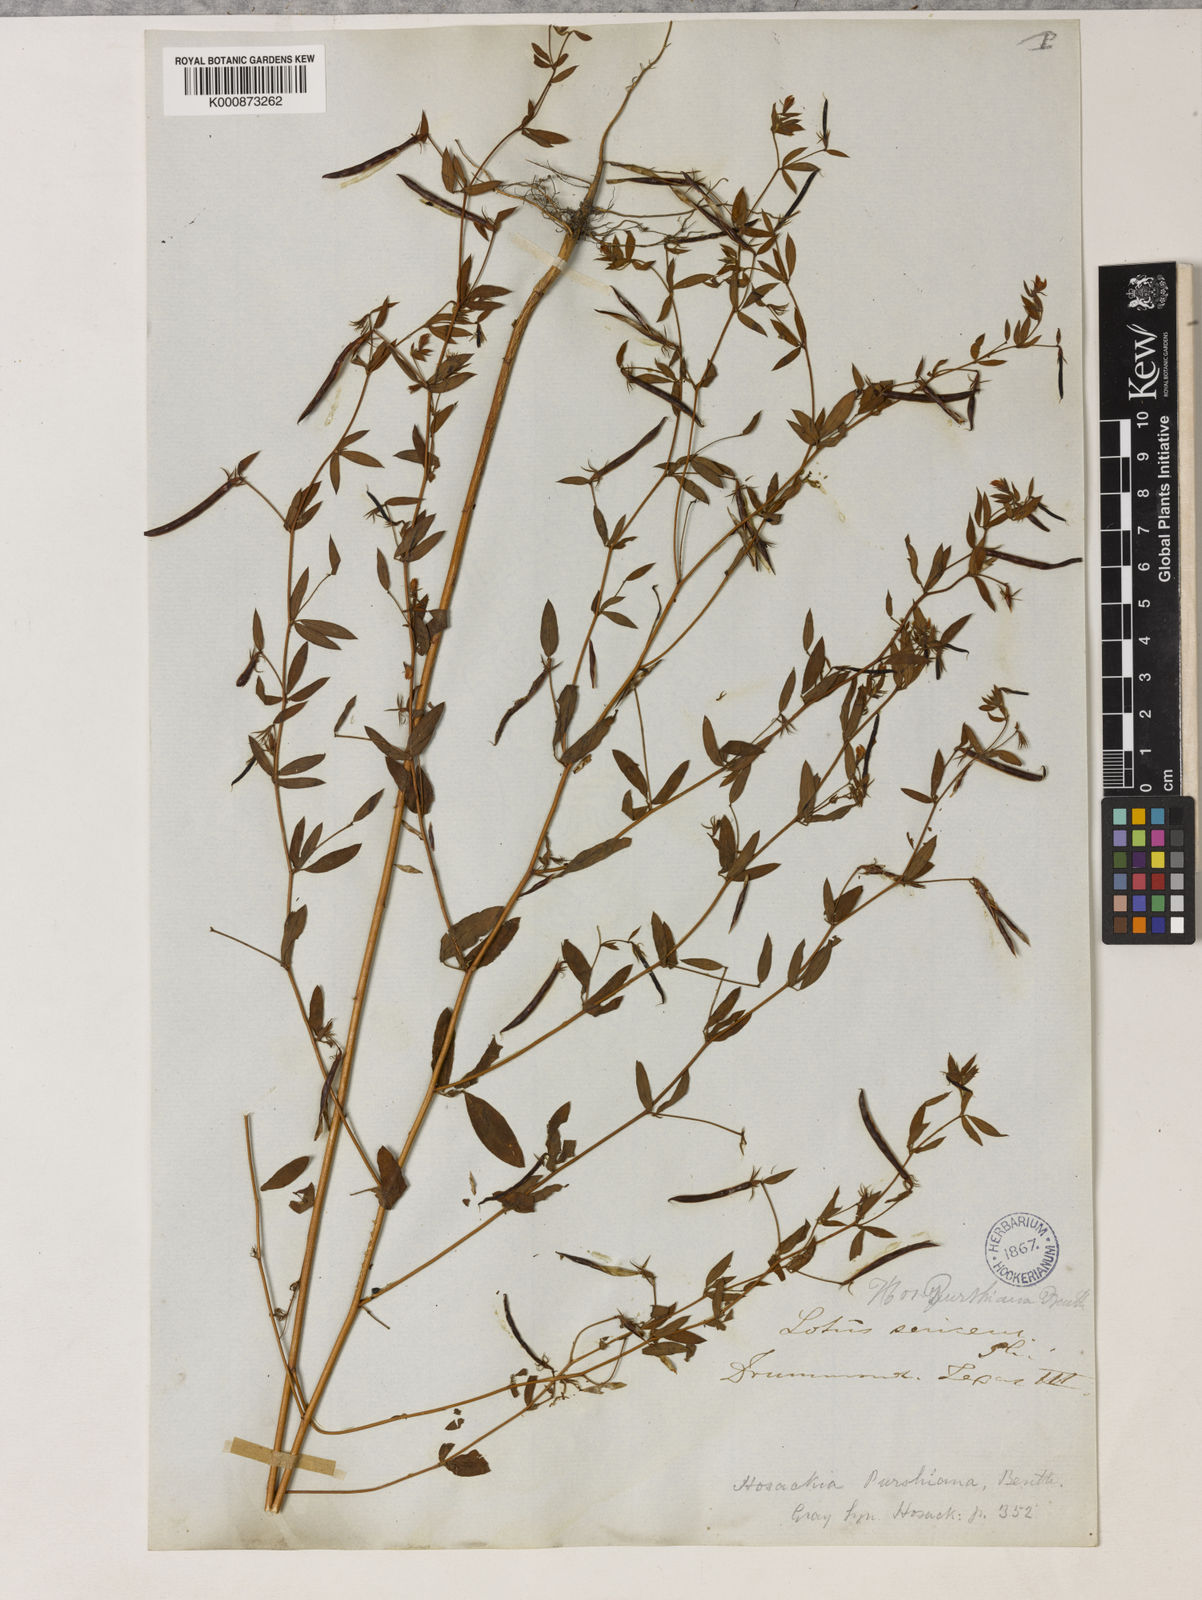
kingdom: Plantae
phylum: Tracheophyta
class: Magnoliopsida
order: Fabales
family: Fabaceae
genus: Collaea
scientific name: Collaea speciosa
